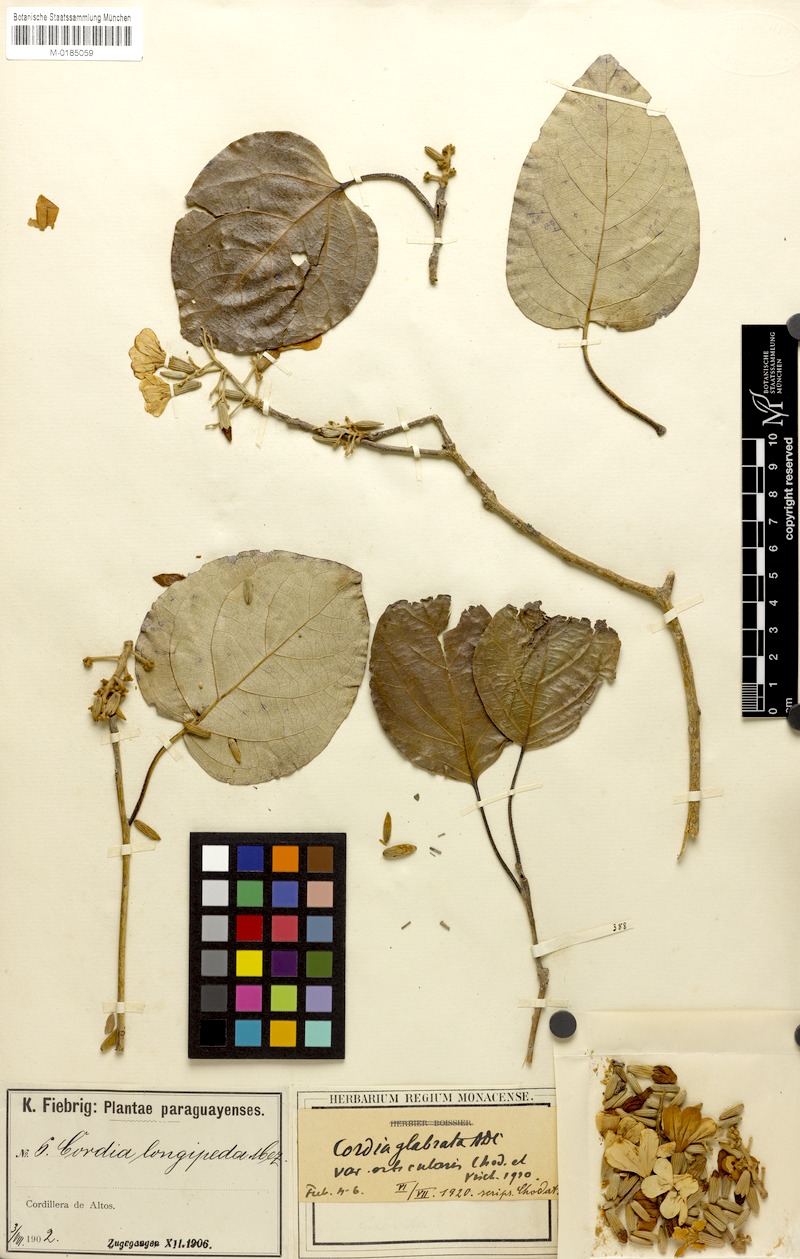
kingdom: Plantae
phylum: Tracheophyta
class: Magnoliopsida
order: Boraginales
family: Cordiaceae
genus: Cordia
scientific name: Cordia glabrata
